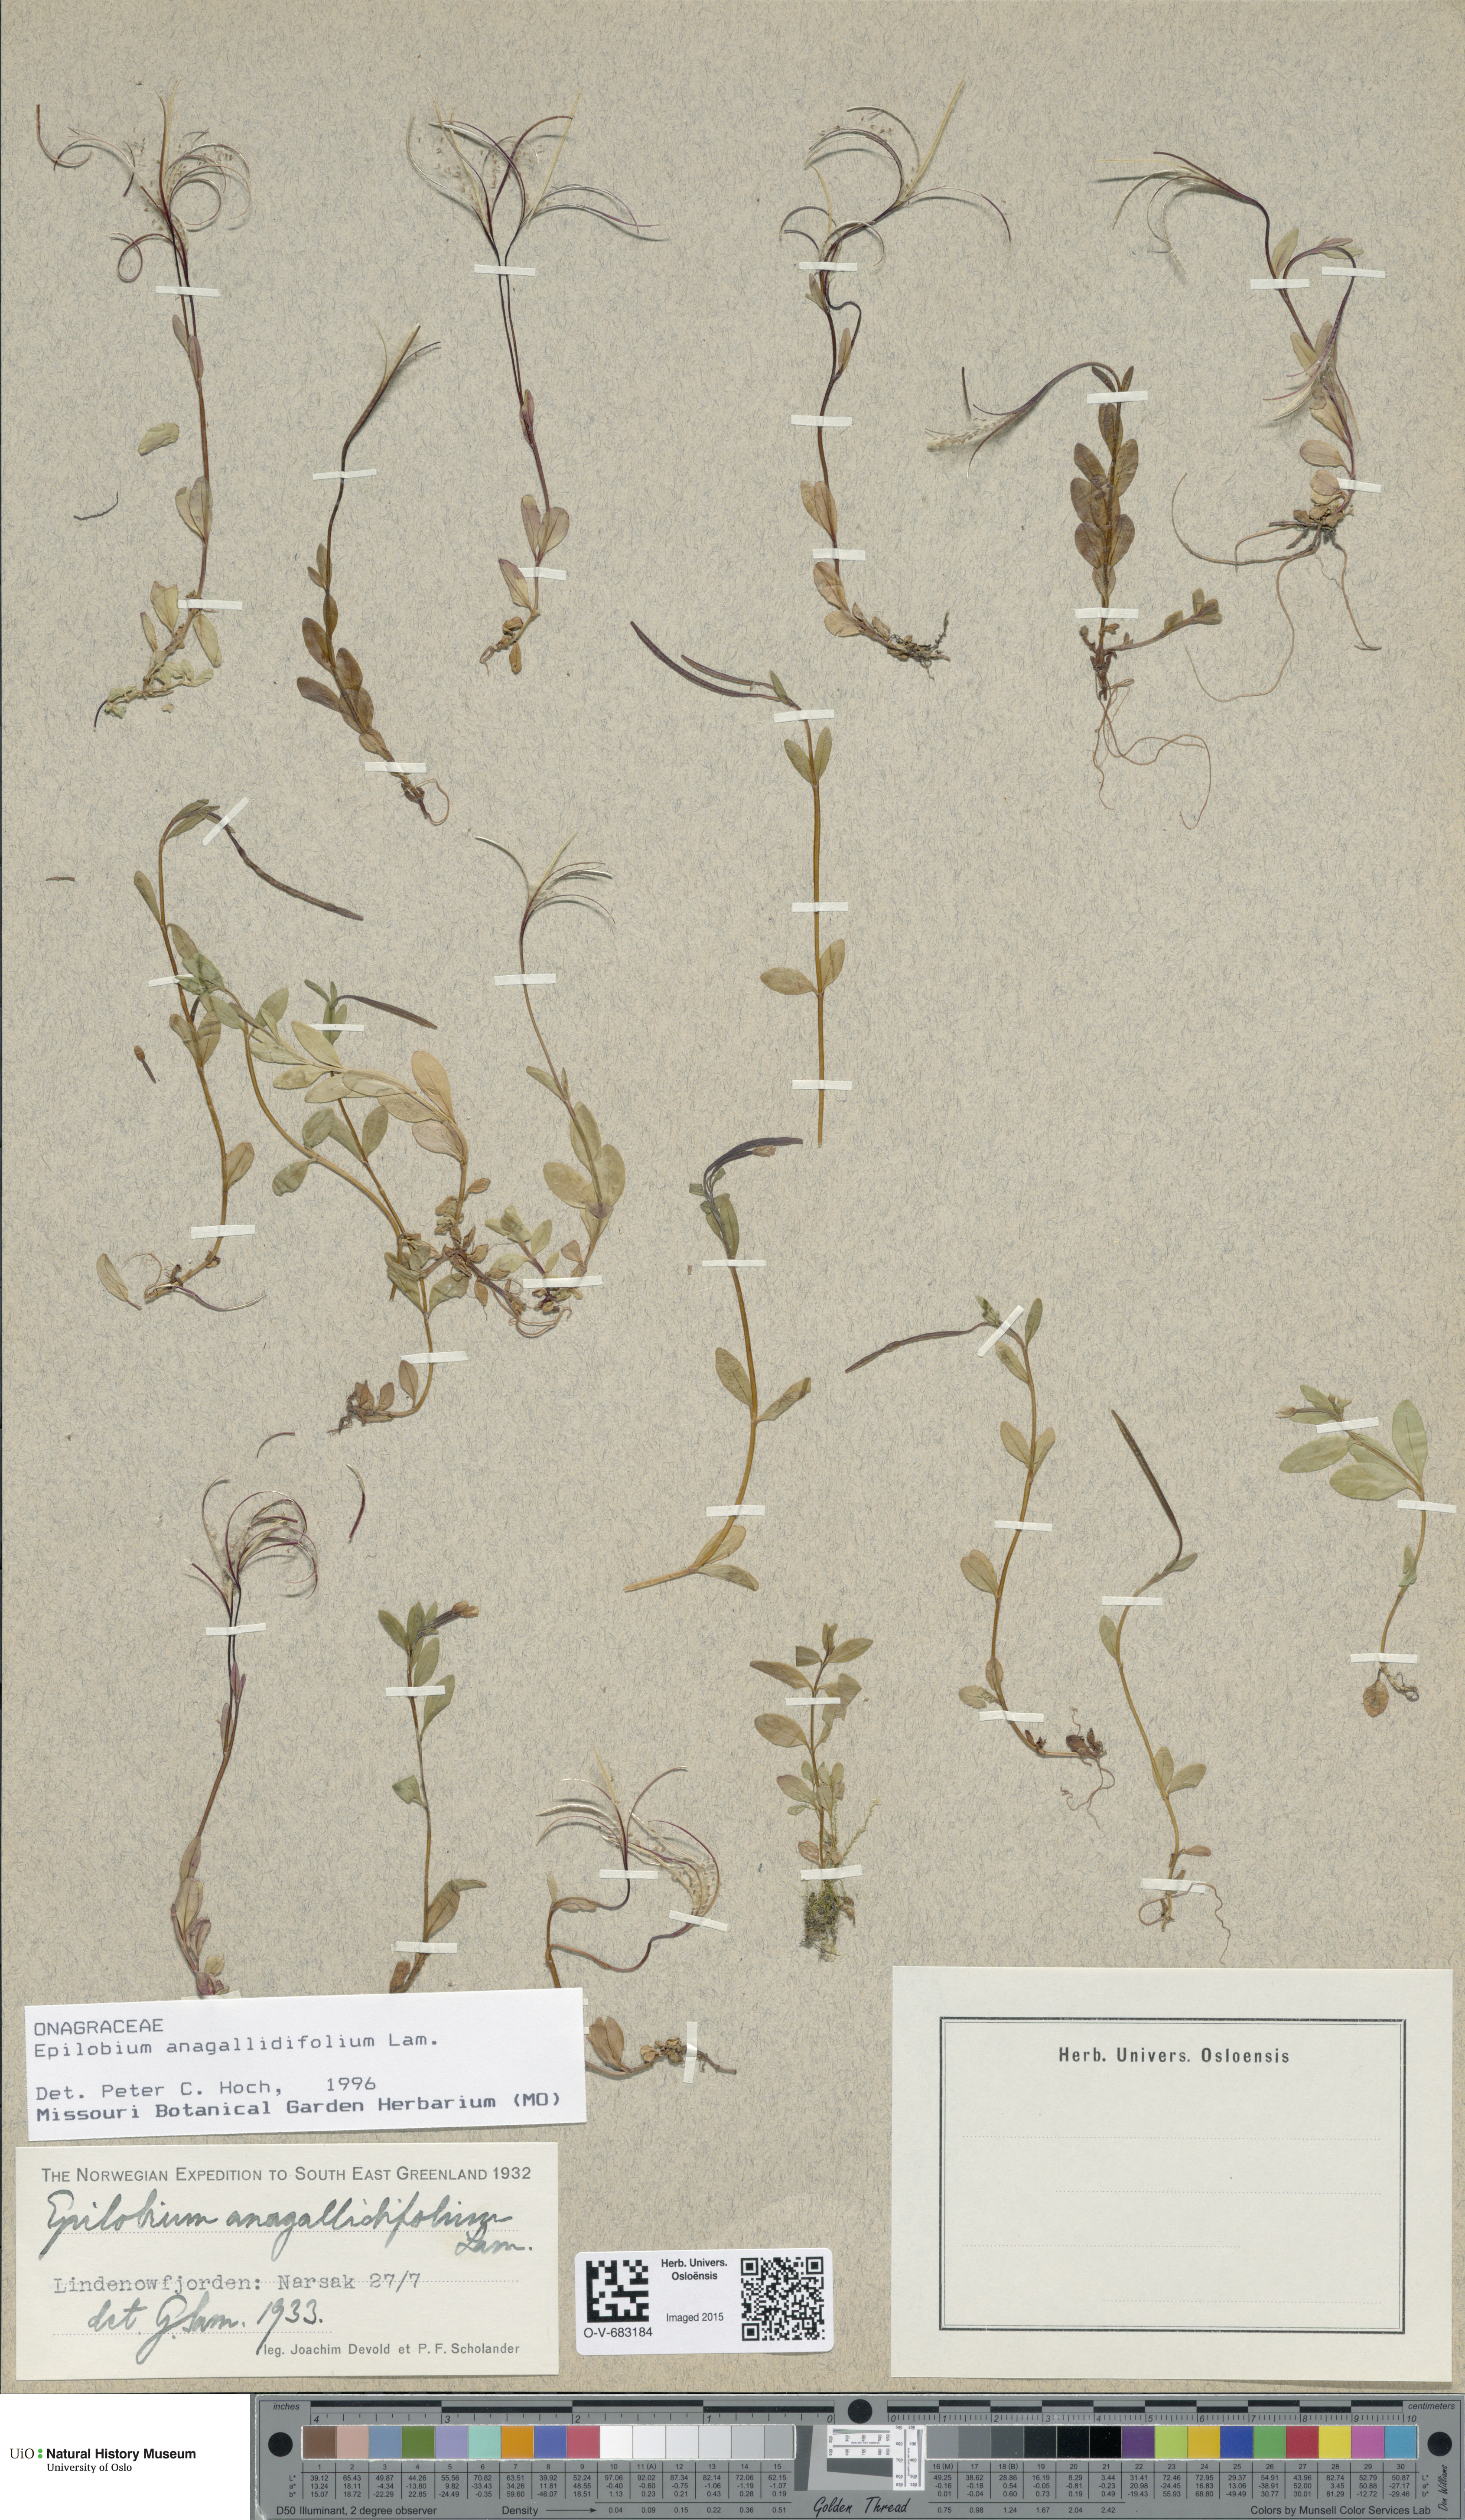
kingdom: Plantae
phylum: Tracheophyta
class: Magnoliopsida
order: Myrtales
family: Onagraceae
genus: Epilobium
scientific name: Epilobium anagallidifolium
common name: Alpine willowherb
